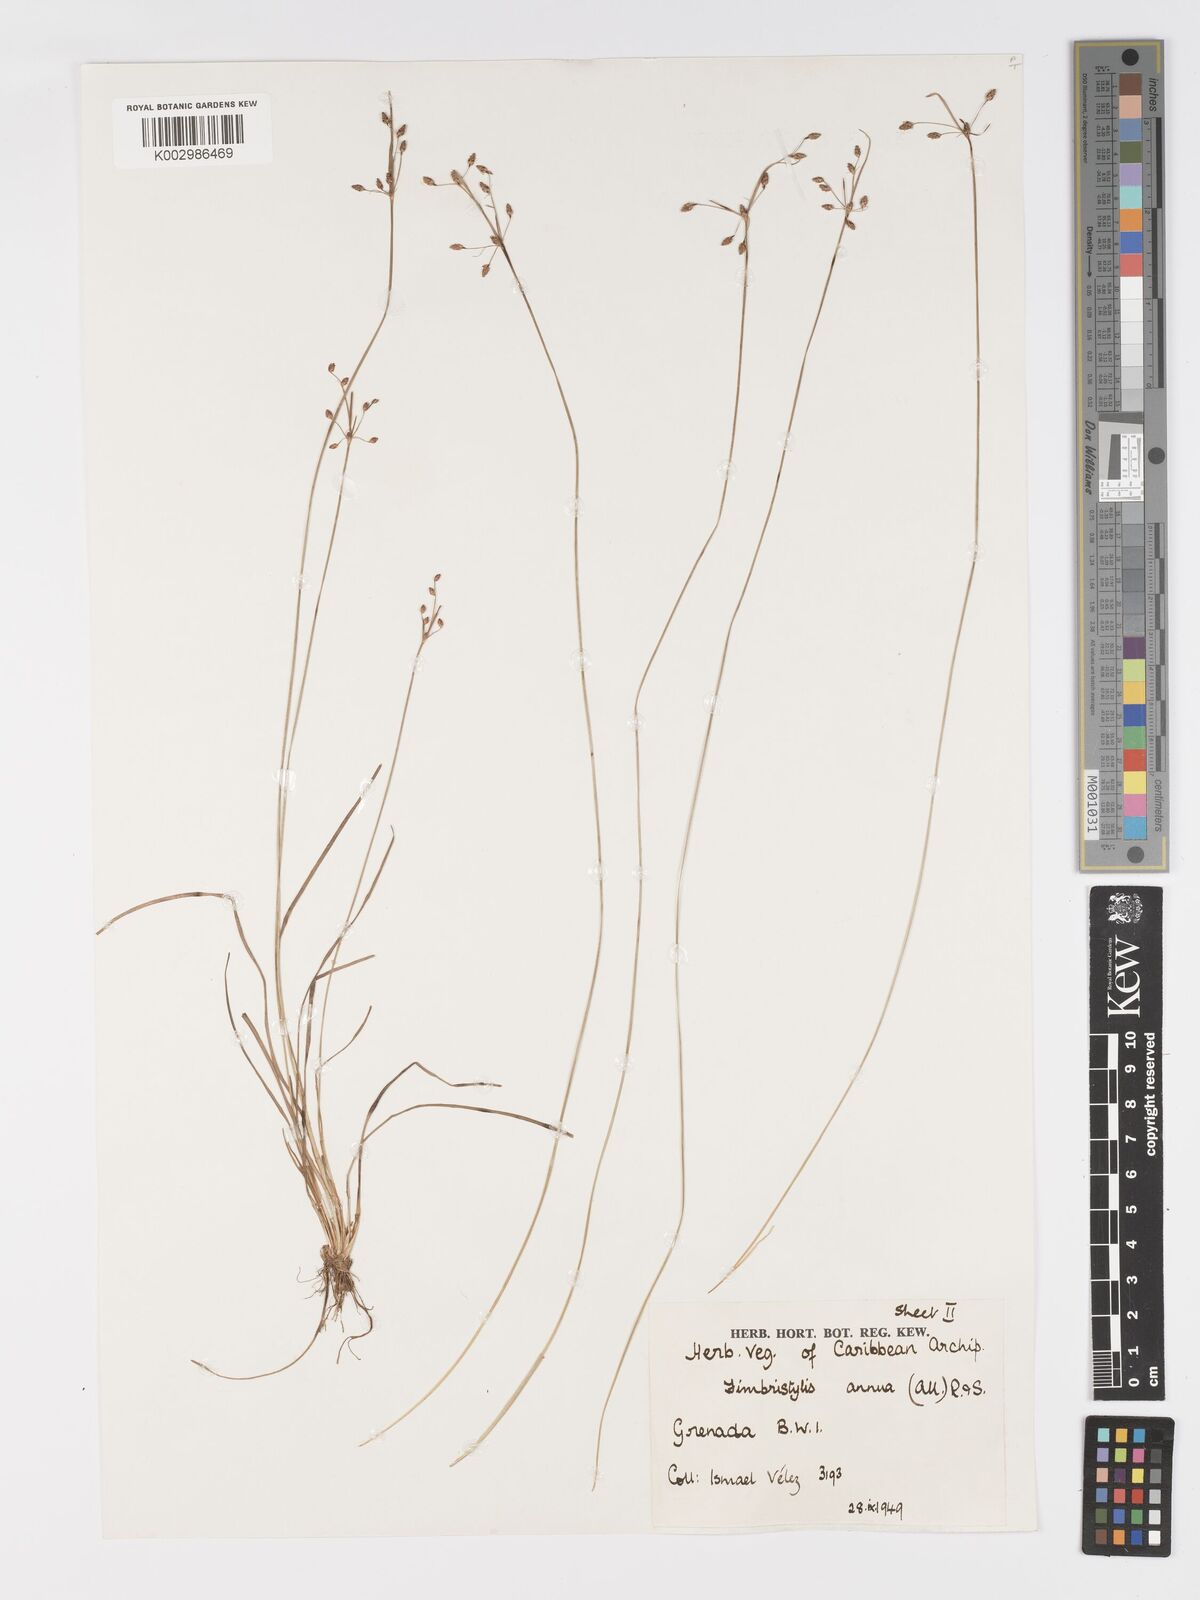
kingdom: Plantae
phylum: Tracheophyta
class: Liliopsida
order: Poales
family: Cyperaceae
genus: Fimbristylis
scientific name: Fimbristylis dichotoma
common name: Forked fimbry
